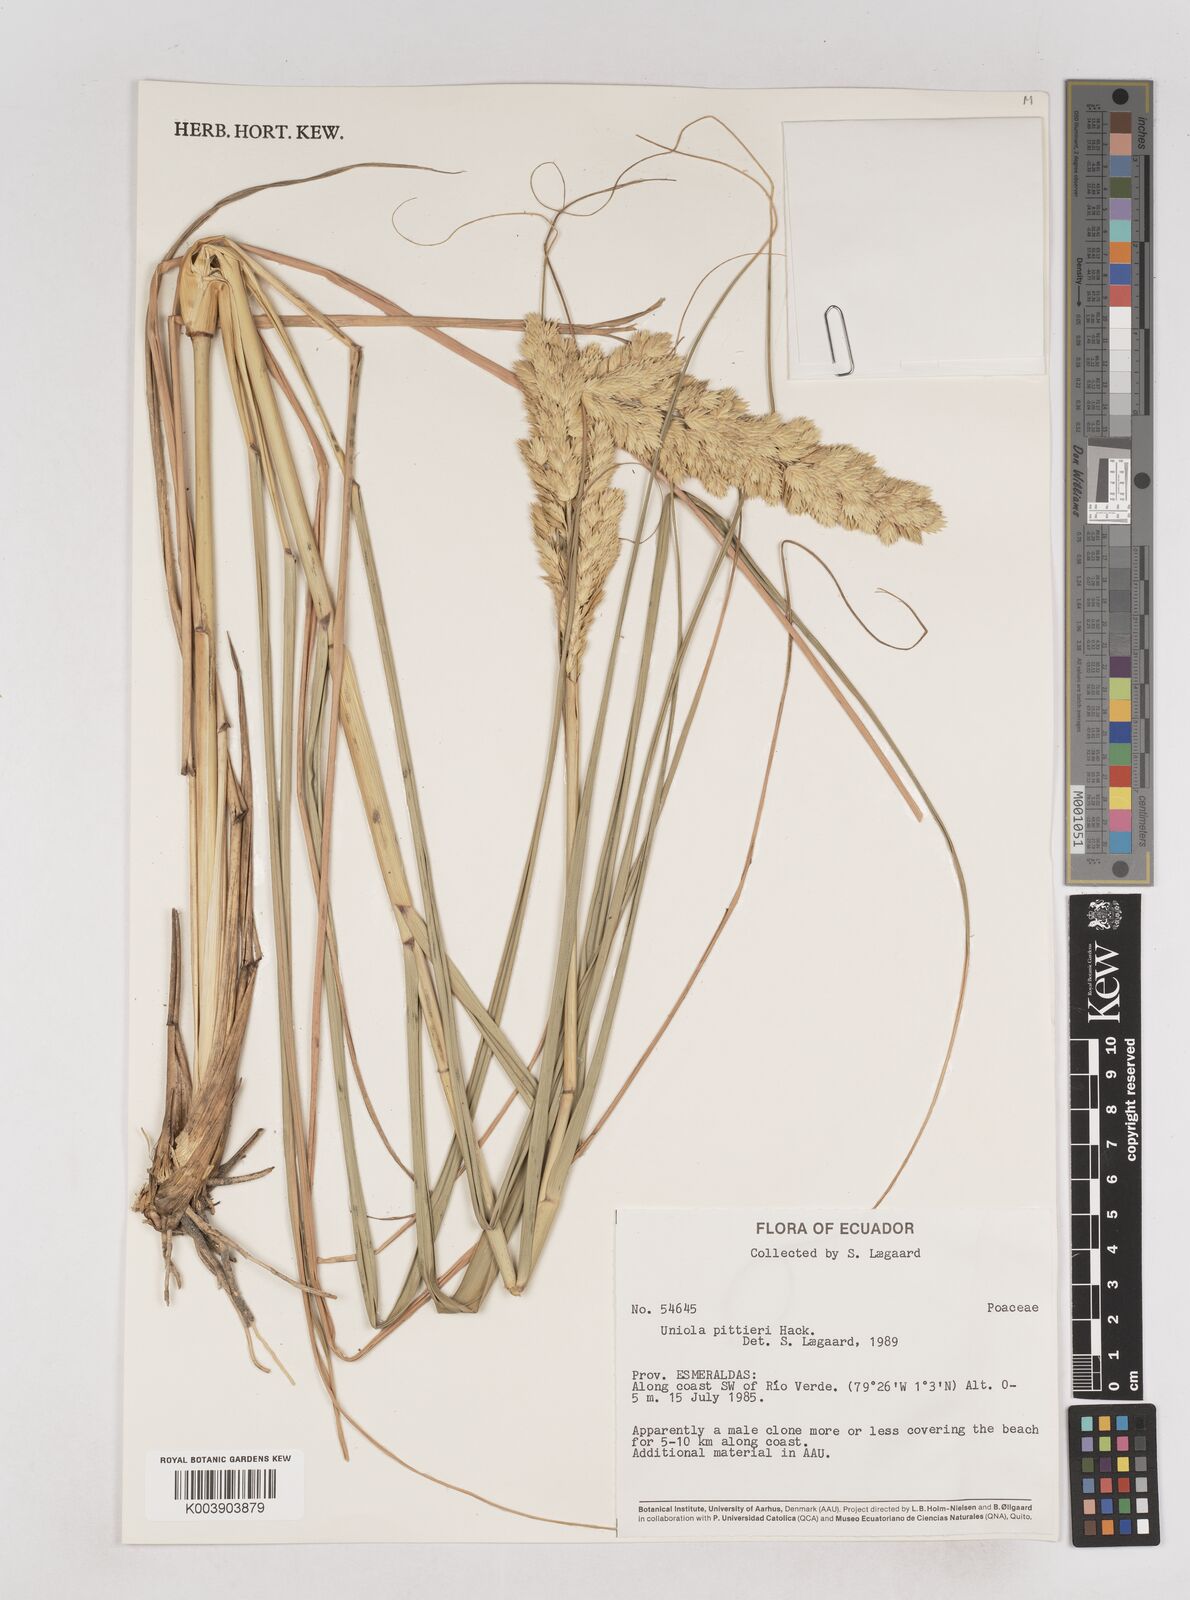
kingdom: Plantae
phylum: Tracheophyta
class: Liliopsida
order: Poales
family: Poaceae
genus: Uniola
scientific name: Uniola pittieri
